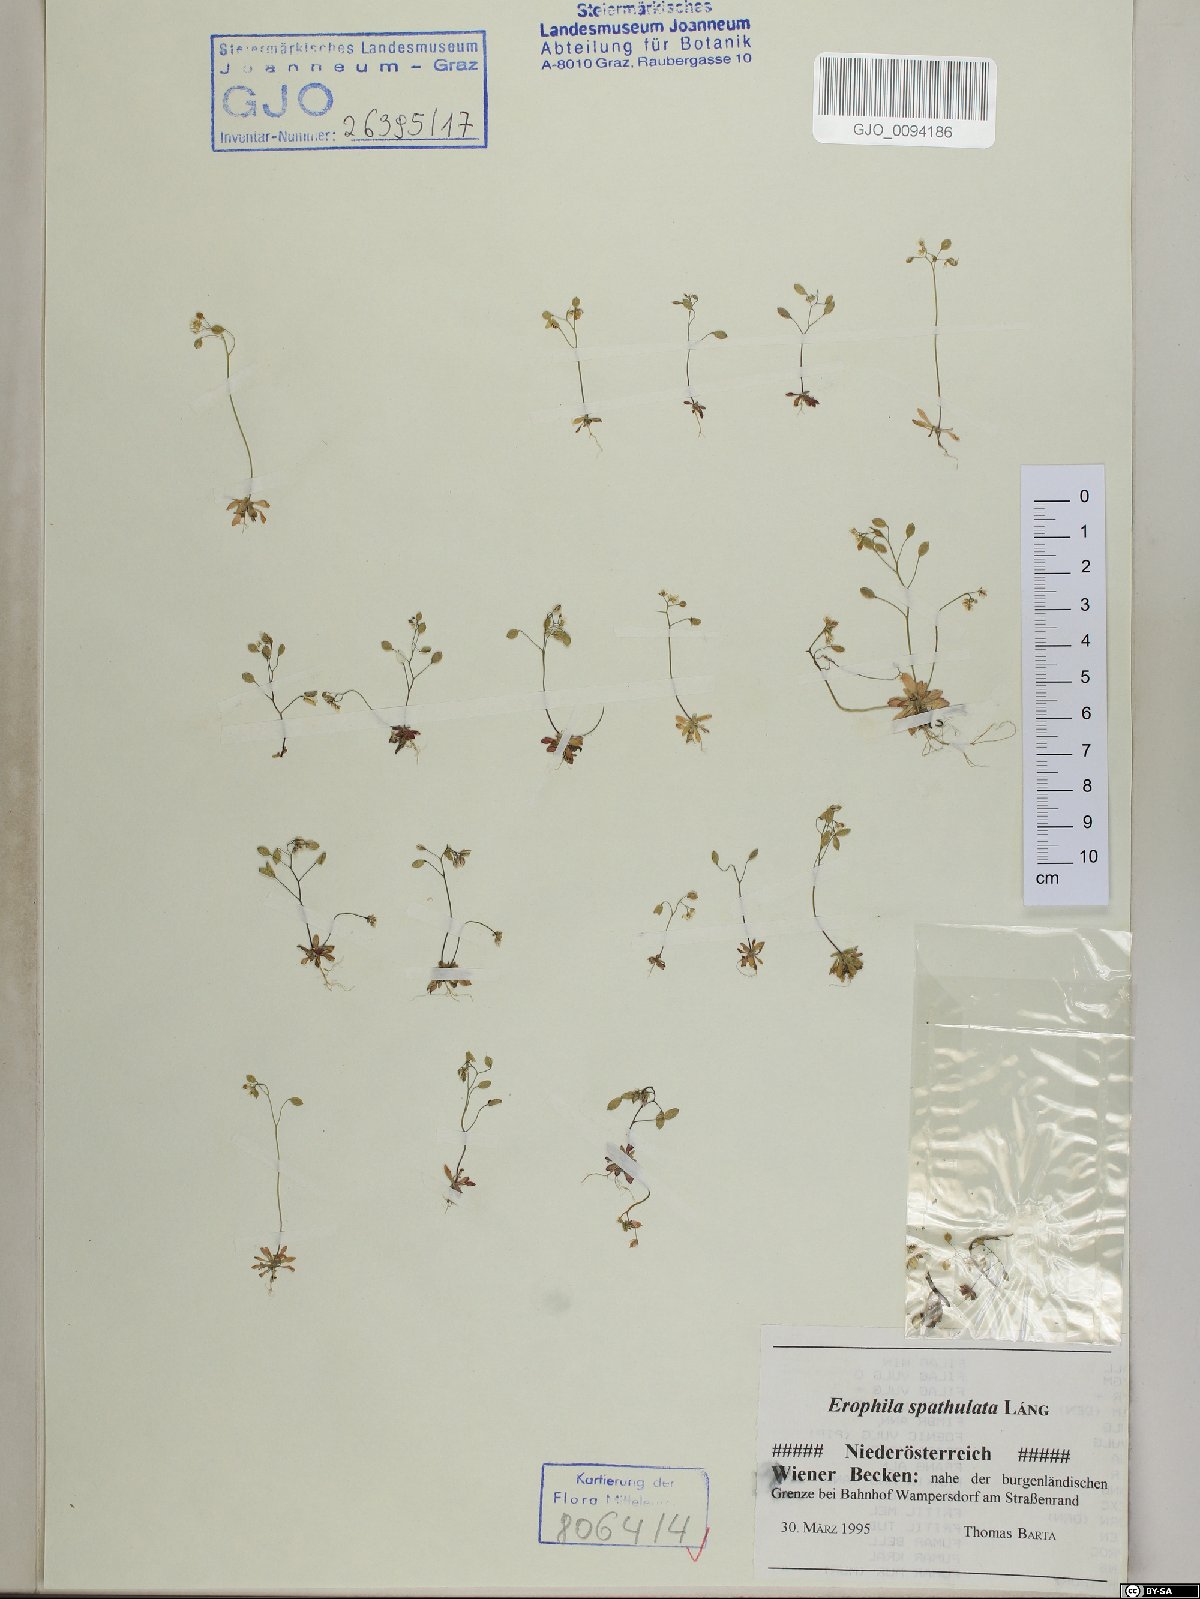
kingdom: Plantae
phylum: Tracheophyta
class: Magnoliopsida
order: Brassicales
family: Brassicaceae
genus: Draba
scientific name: Draba verna
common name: Spring draba
